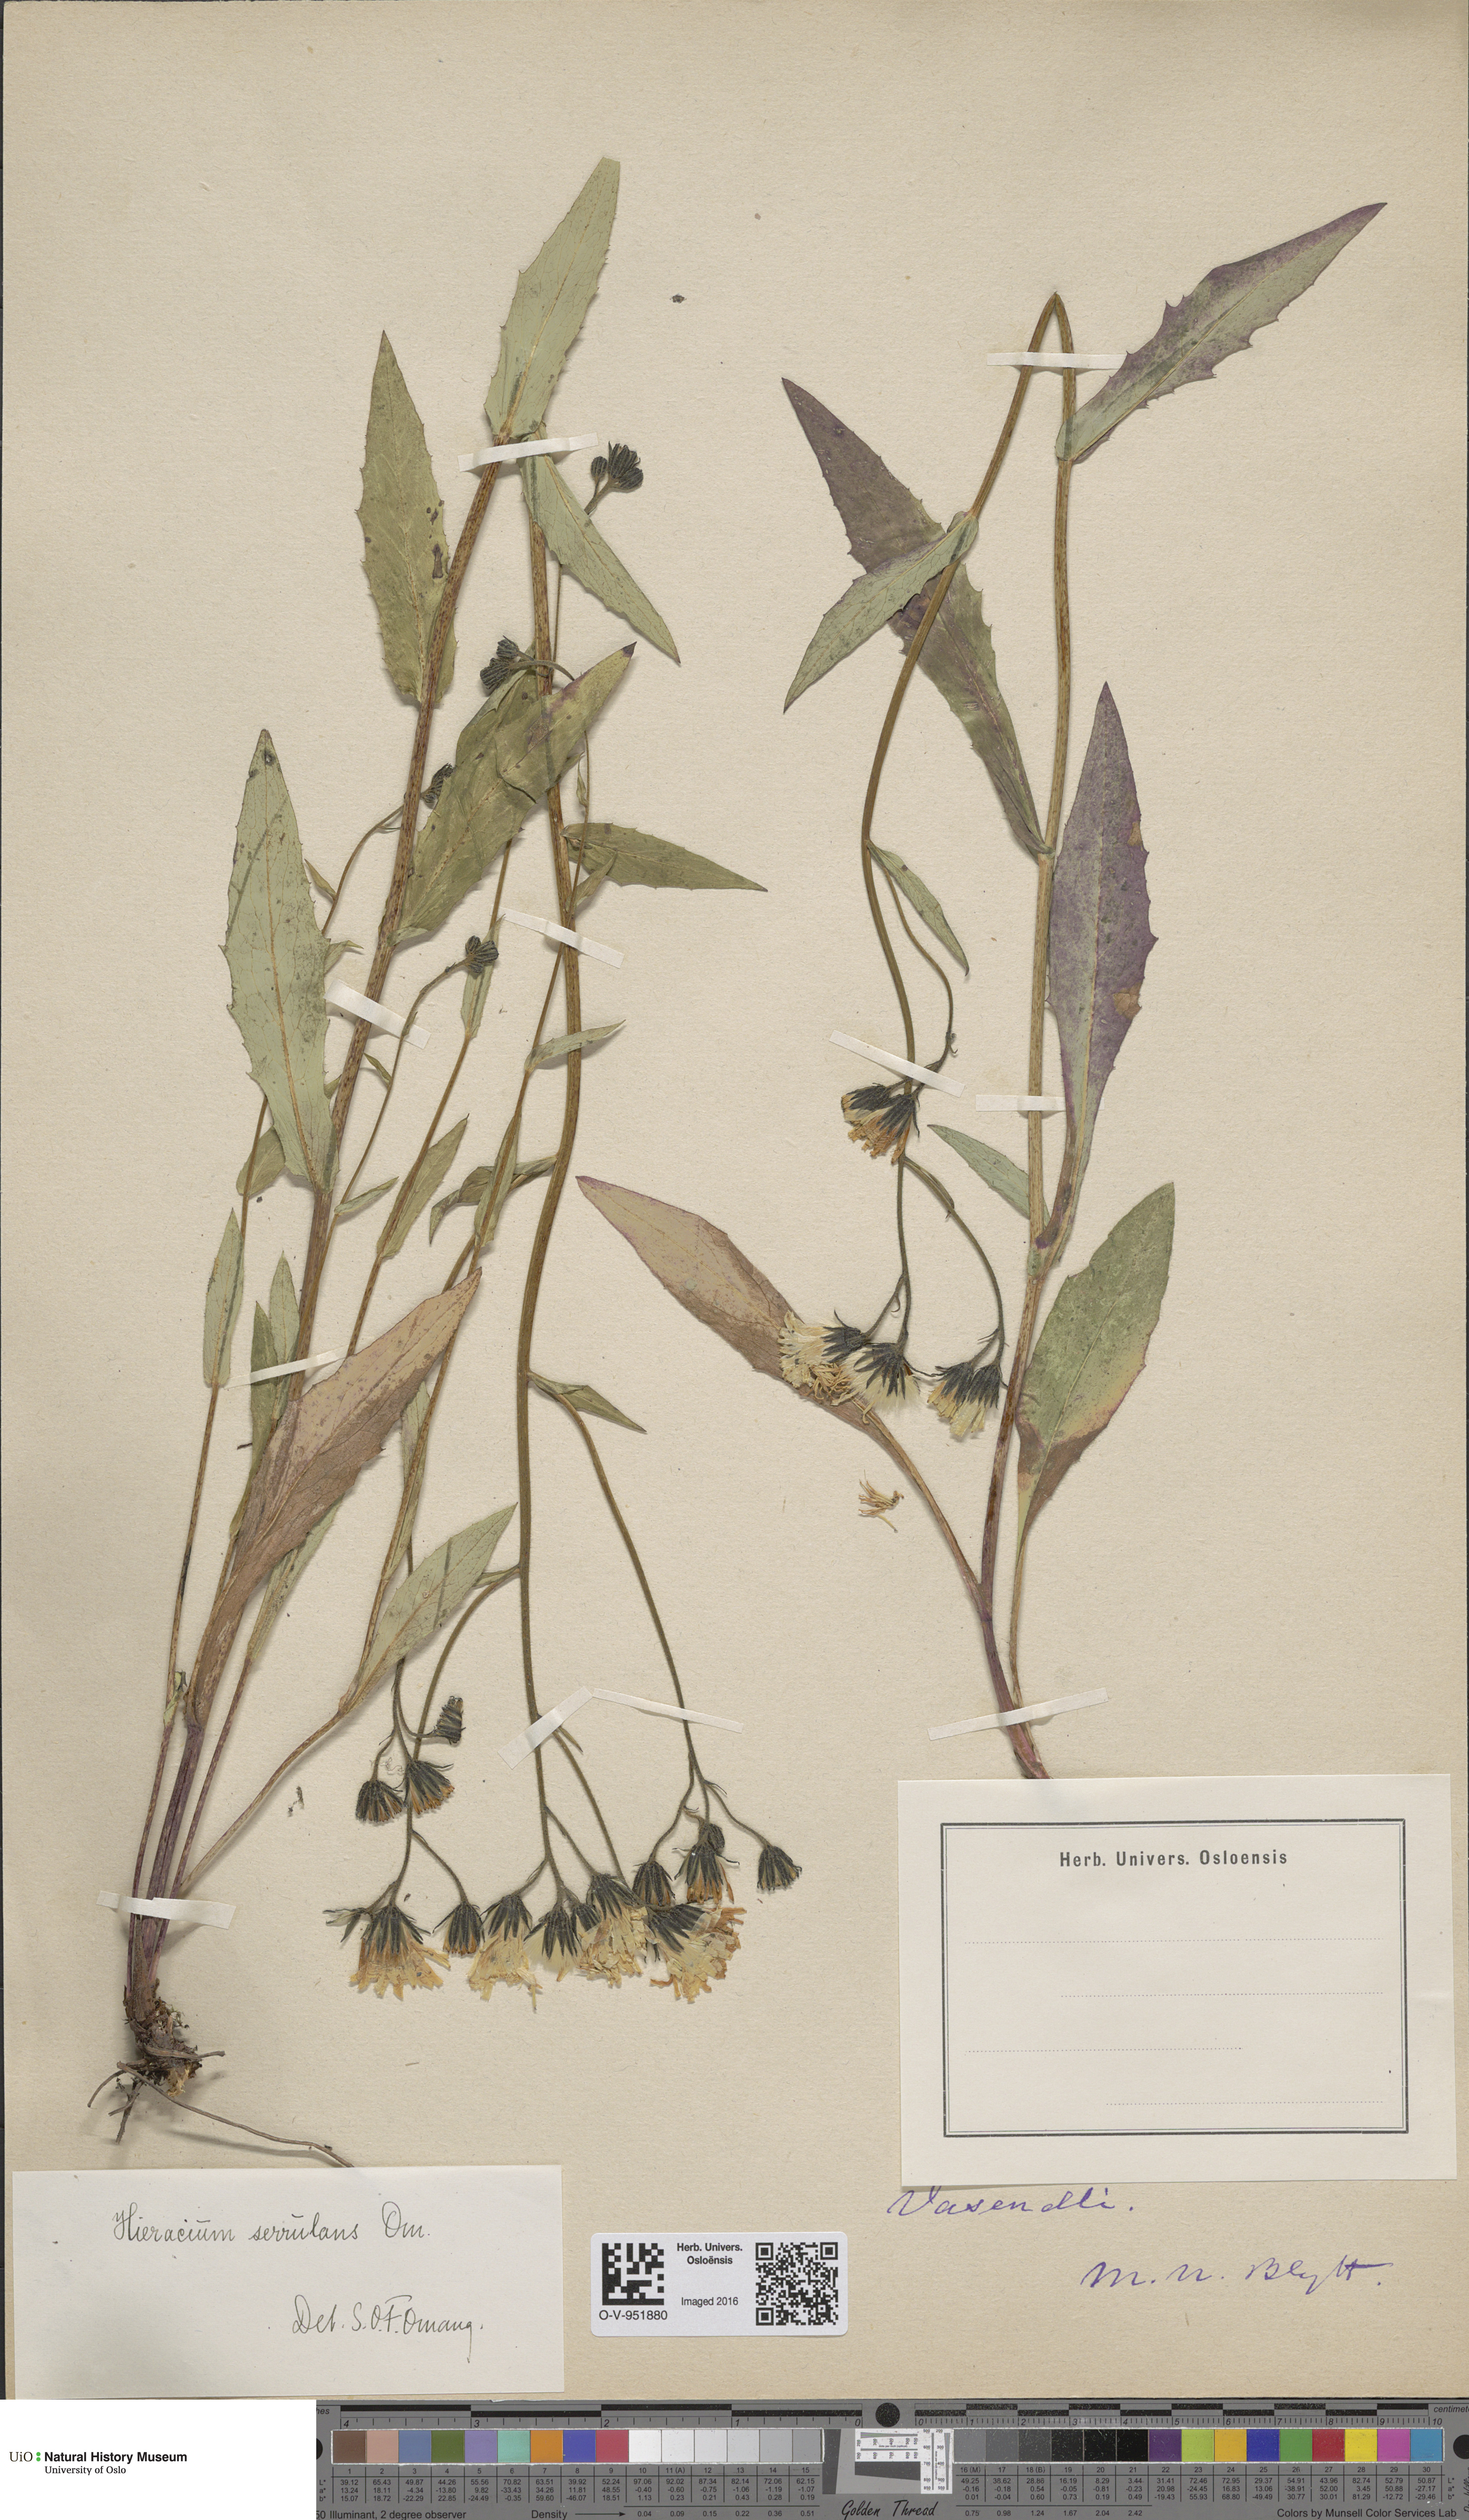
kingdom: Plantae
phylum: Tracheophyta
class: Magnoliopsida
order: Asterales
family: Asteraceae
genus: Hieracium
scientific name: Hieracium
